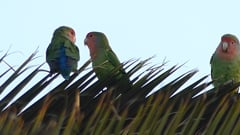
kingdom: Animalia
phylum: Chordata
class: Aves
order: Psittaciformes
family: Psittacidae
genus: Agapornis
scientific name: Agapornis roseicollis
